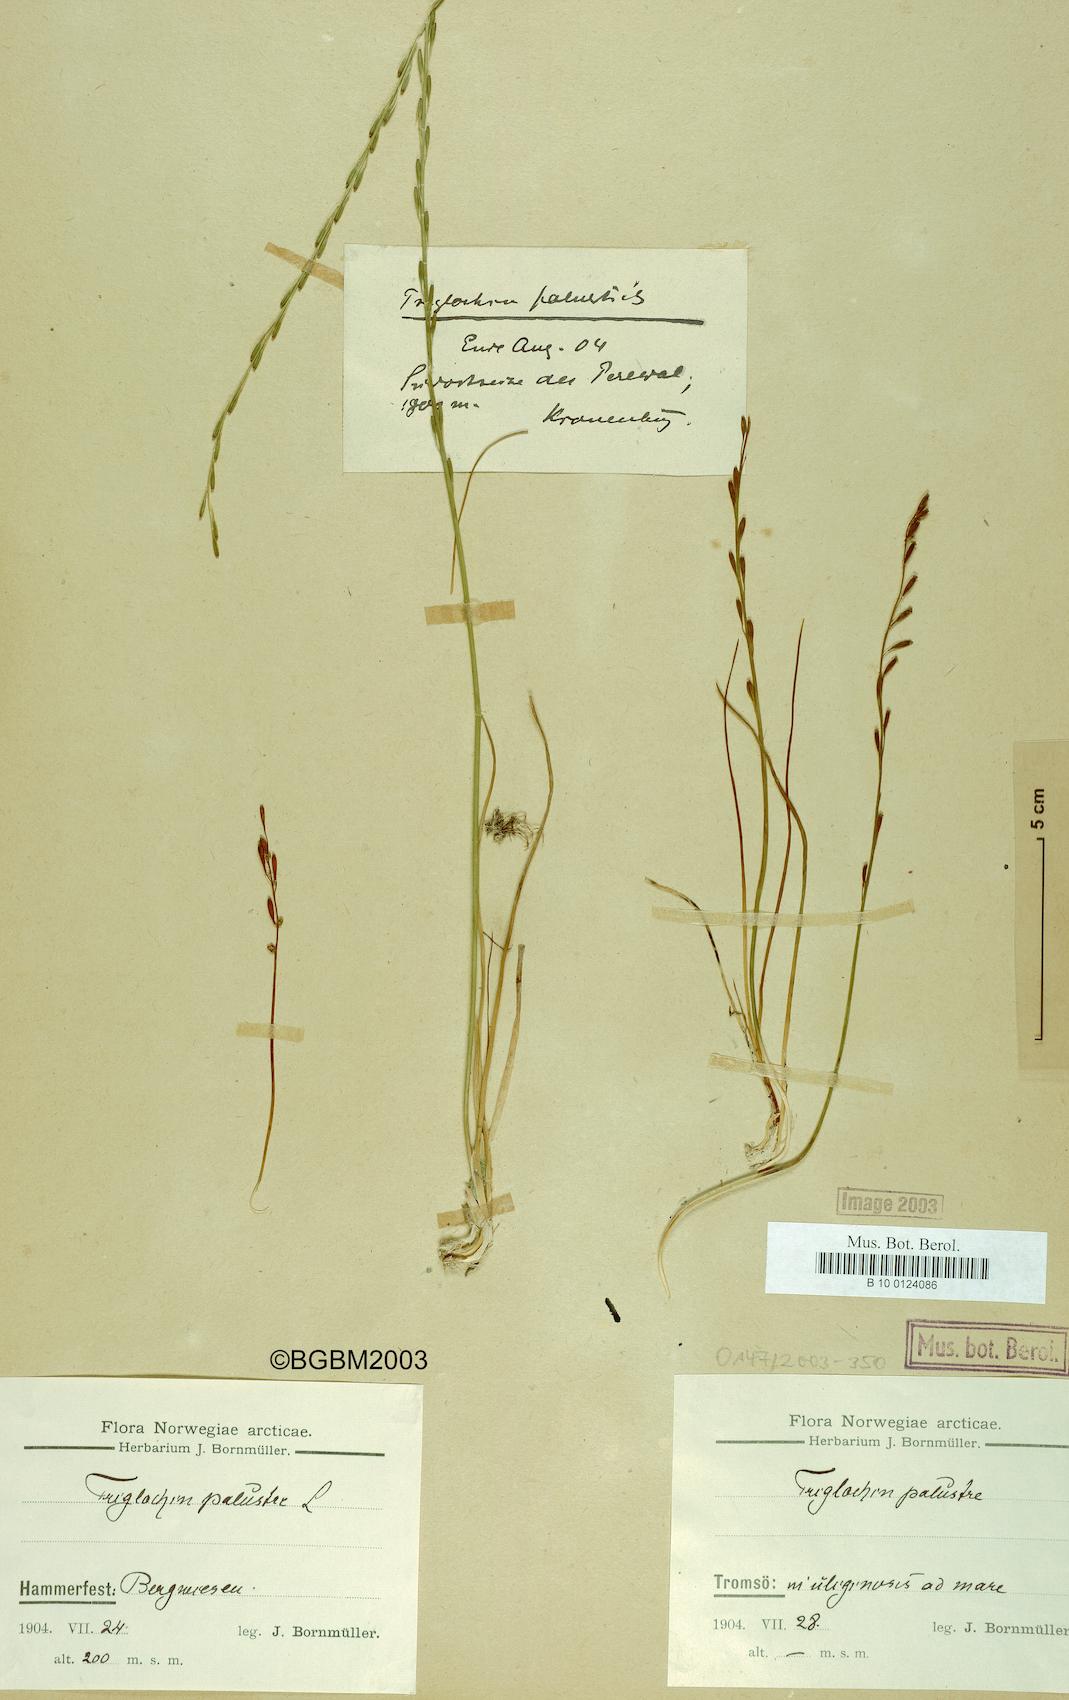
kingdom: Plantae
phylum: Tracheophyta
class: Liliopsida
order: Alismatales
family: Juncaginaceae
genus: Triglochin
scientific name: Triglochin palustris
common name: Marsh arrowgrass
